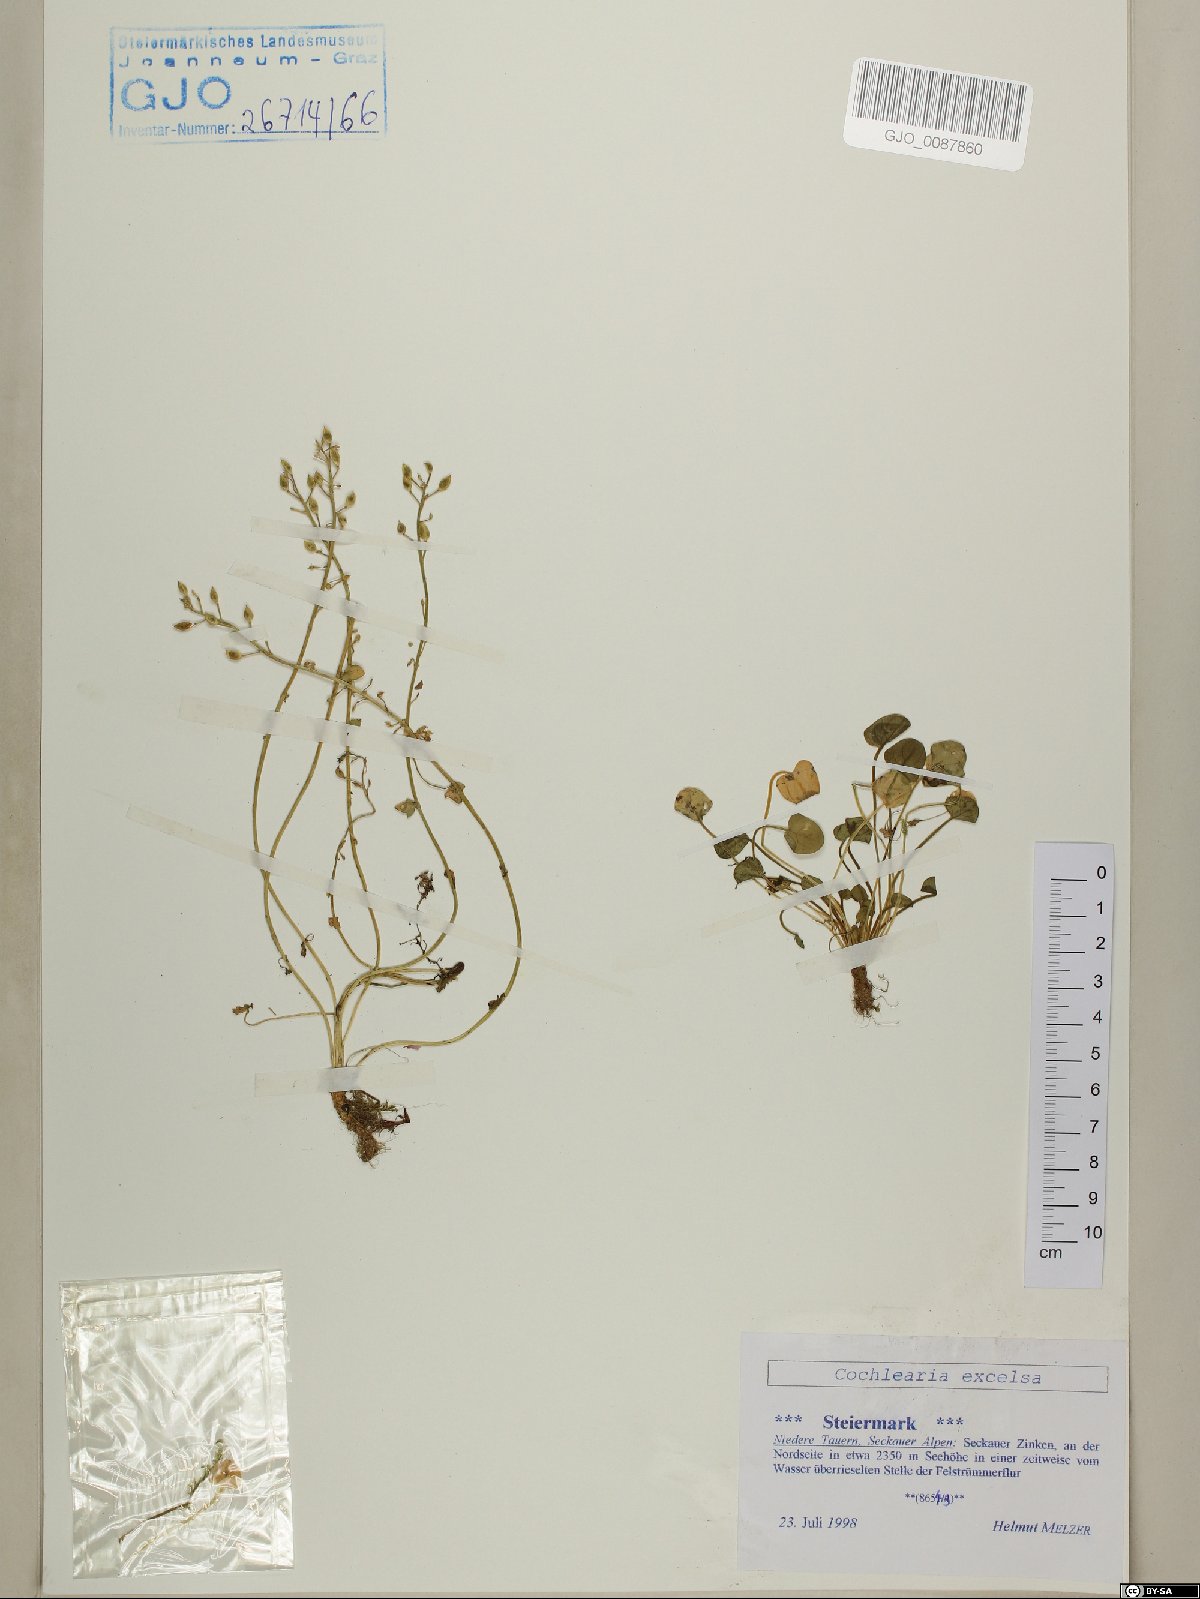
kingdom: Plantae
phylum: Tracheophyta
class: Magnoliopsida
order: Brassicales
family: Brassicaceae
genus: Cochlearia
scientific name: Cochlearia pyrenaica
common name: Upland scurvy-grass
